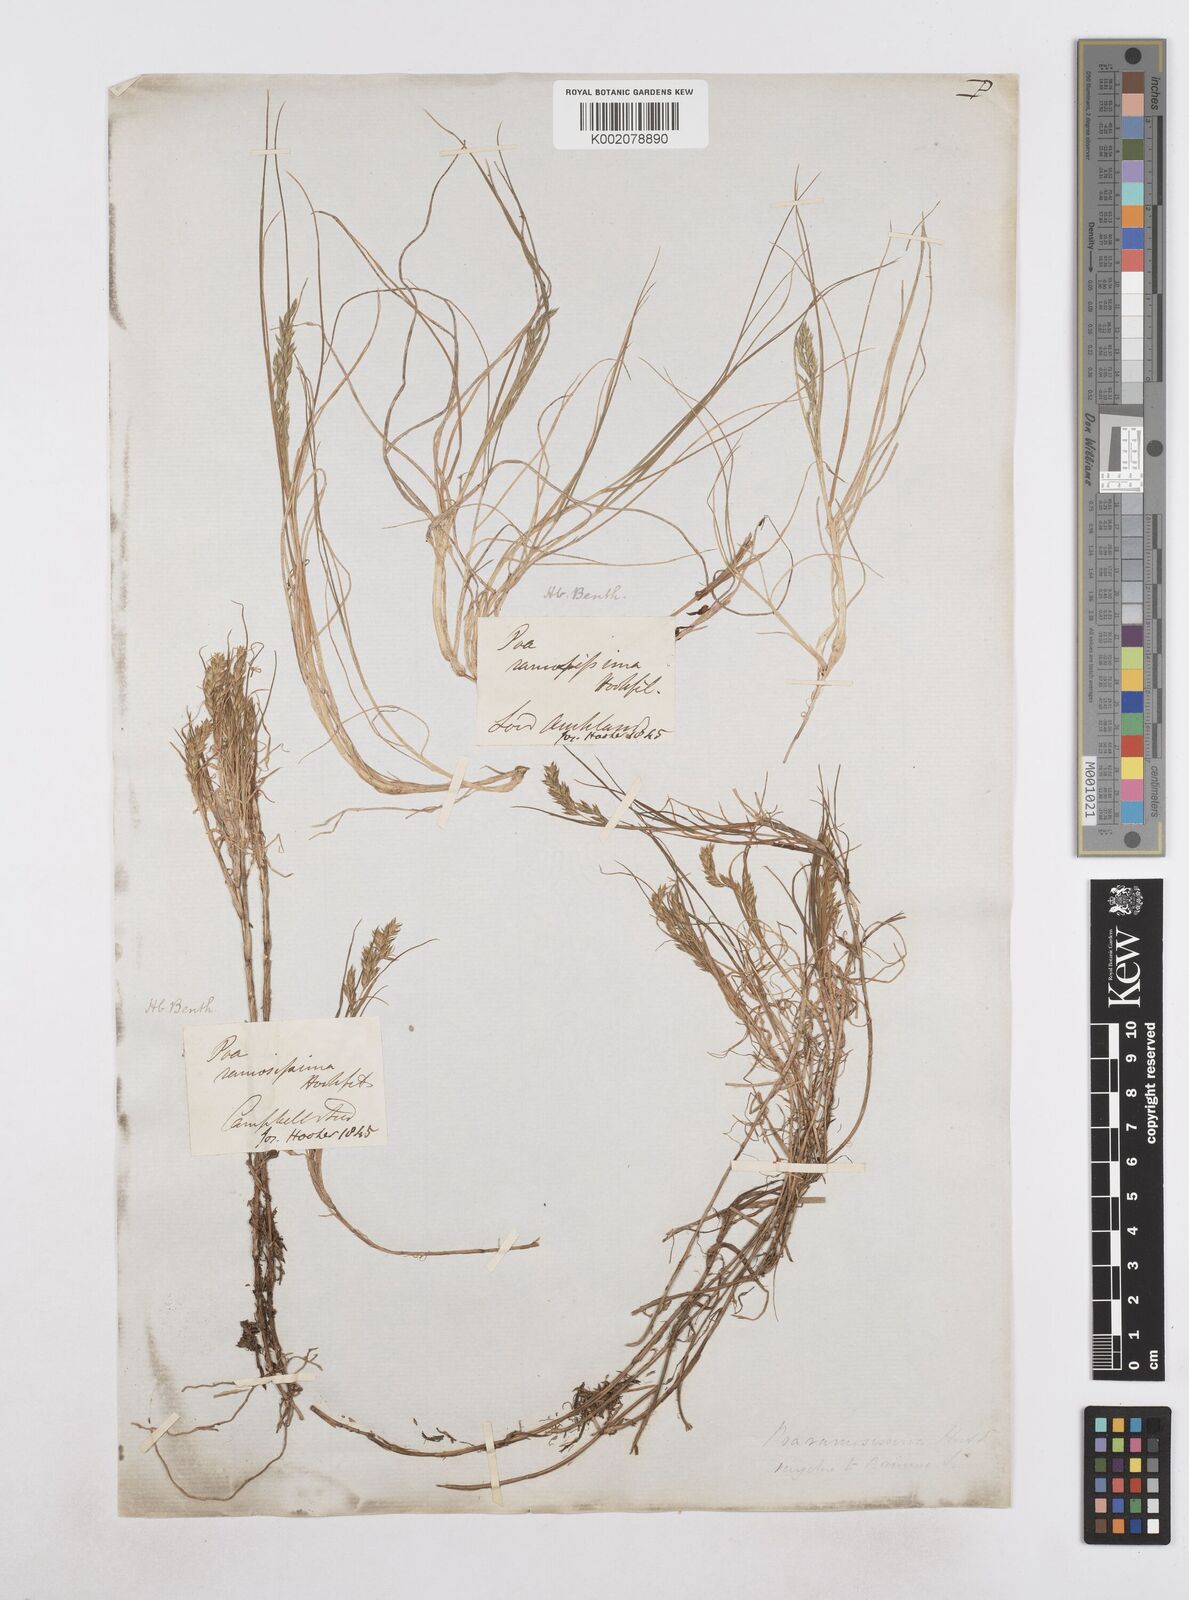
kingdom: Plantae
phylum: Tracheophyta
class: Liliopsida
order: Poales
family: Poaceae
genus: Poa
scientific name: Poa ramosissima
